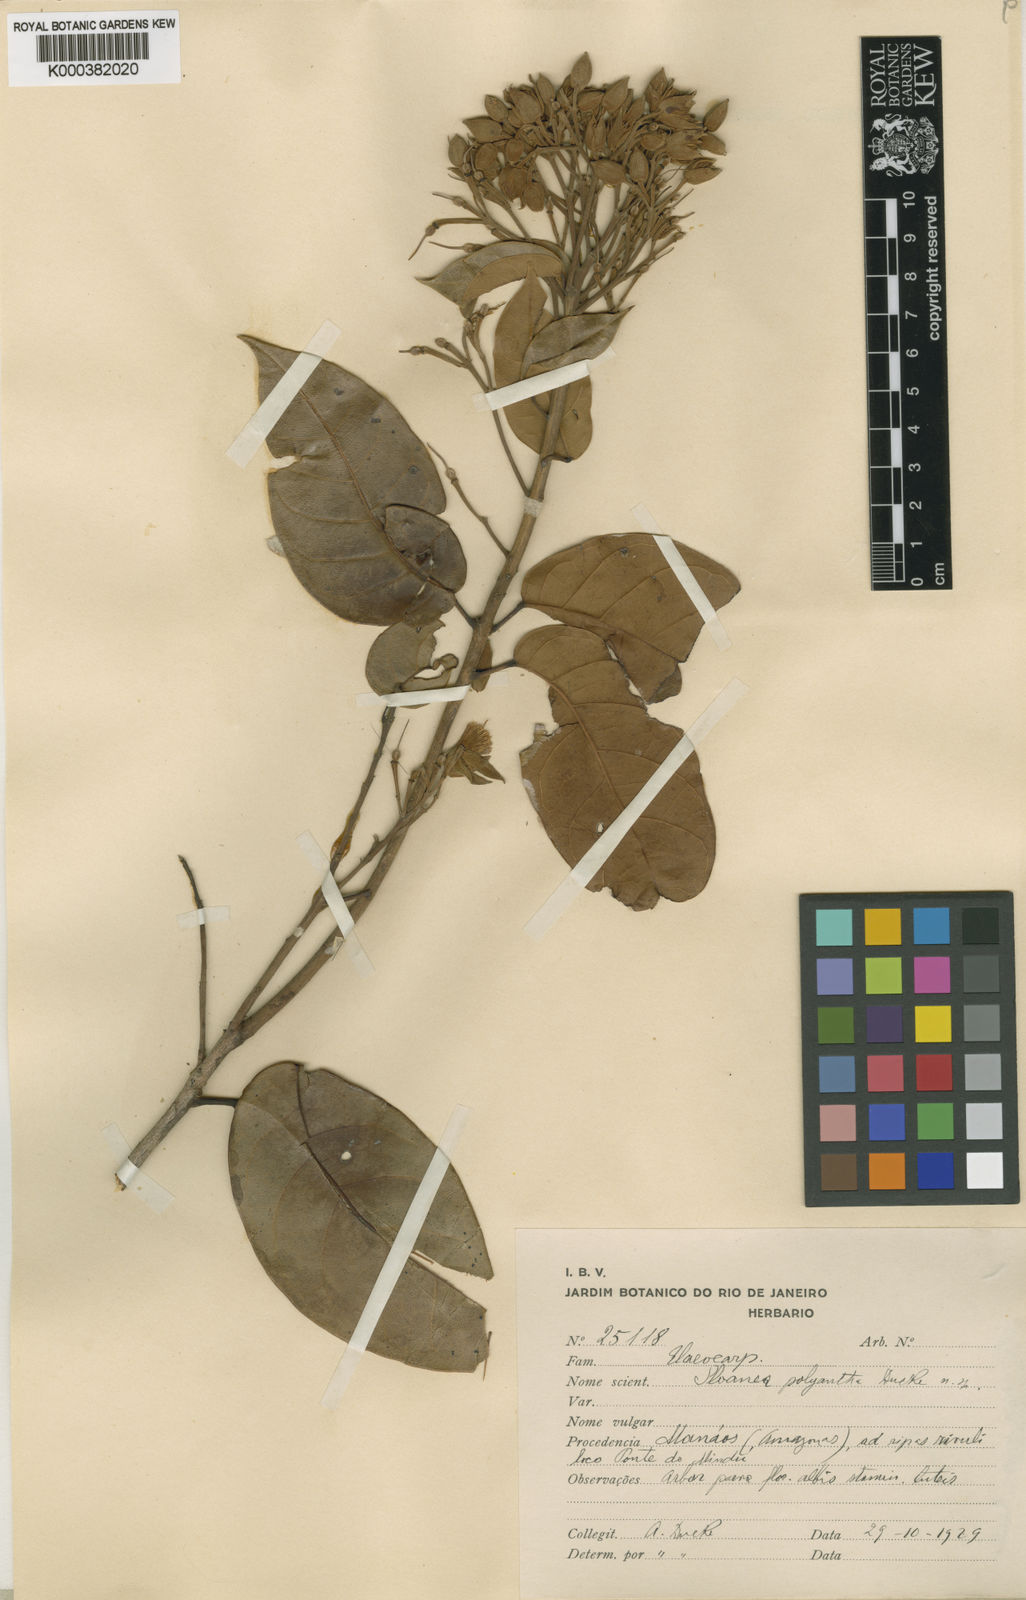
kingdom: Plantae
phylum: Tracheophyta
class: Magnoliopsida
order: Oxalidales
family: Elaeocarpaceae
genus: Sloanea
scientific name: Sloanea laxiflora
